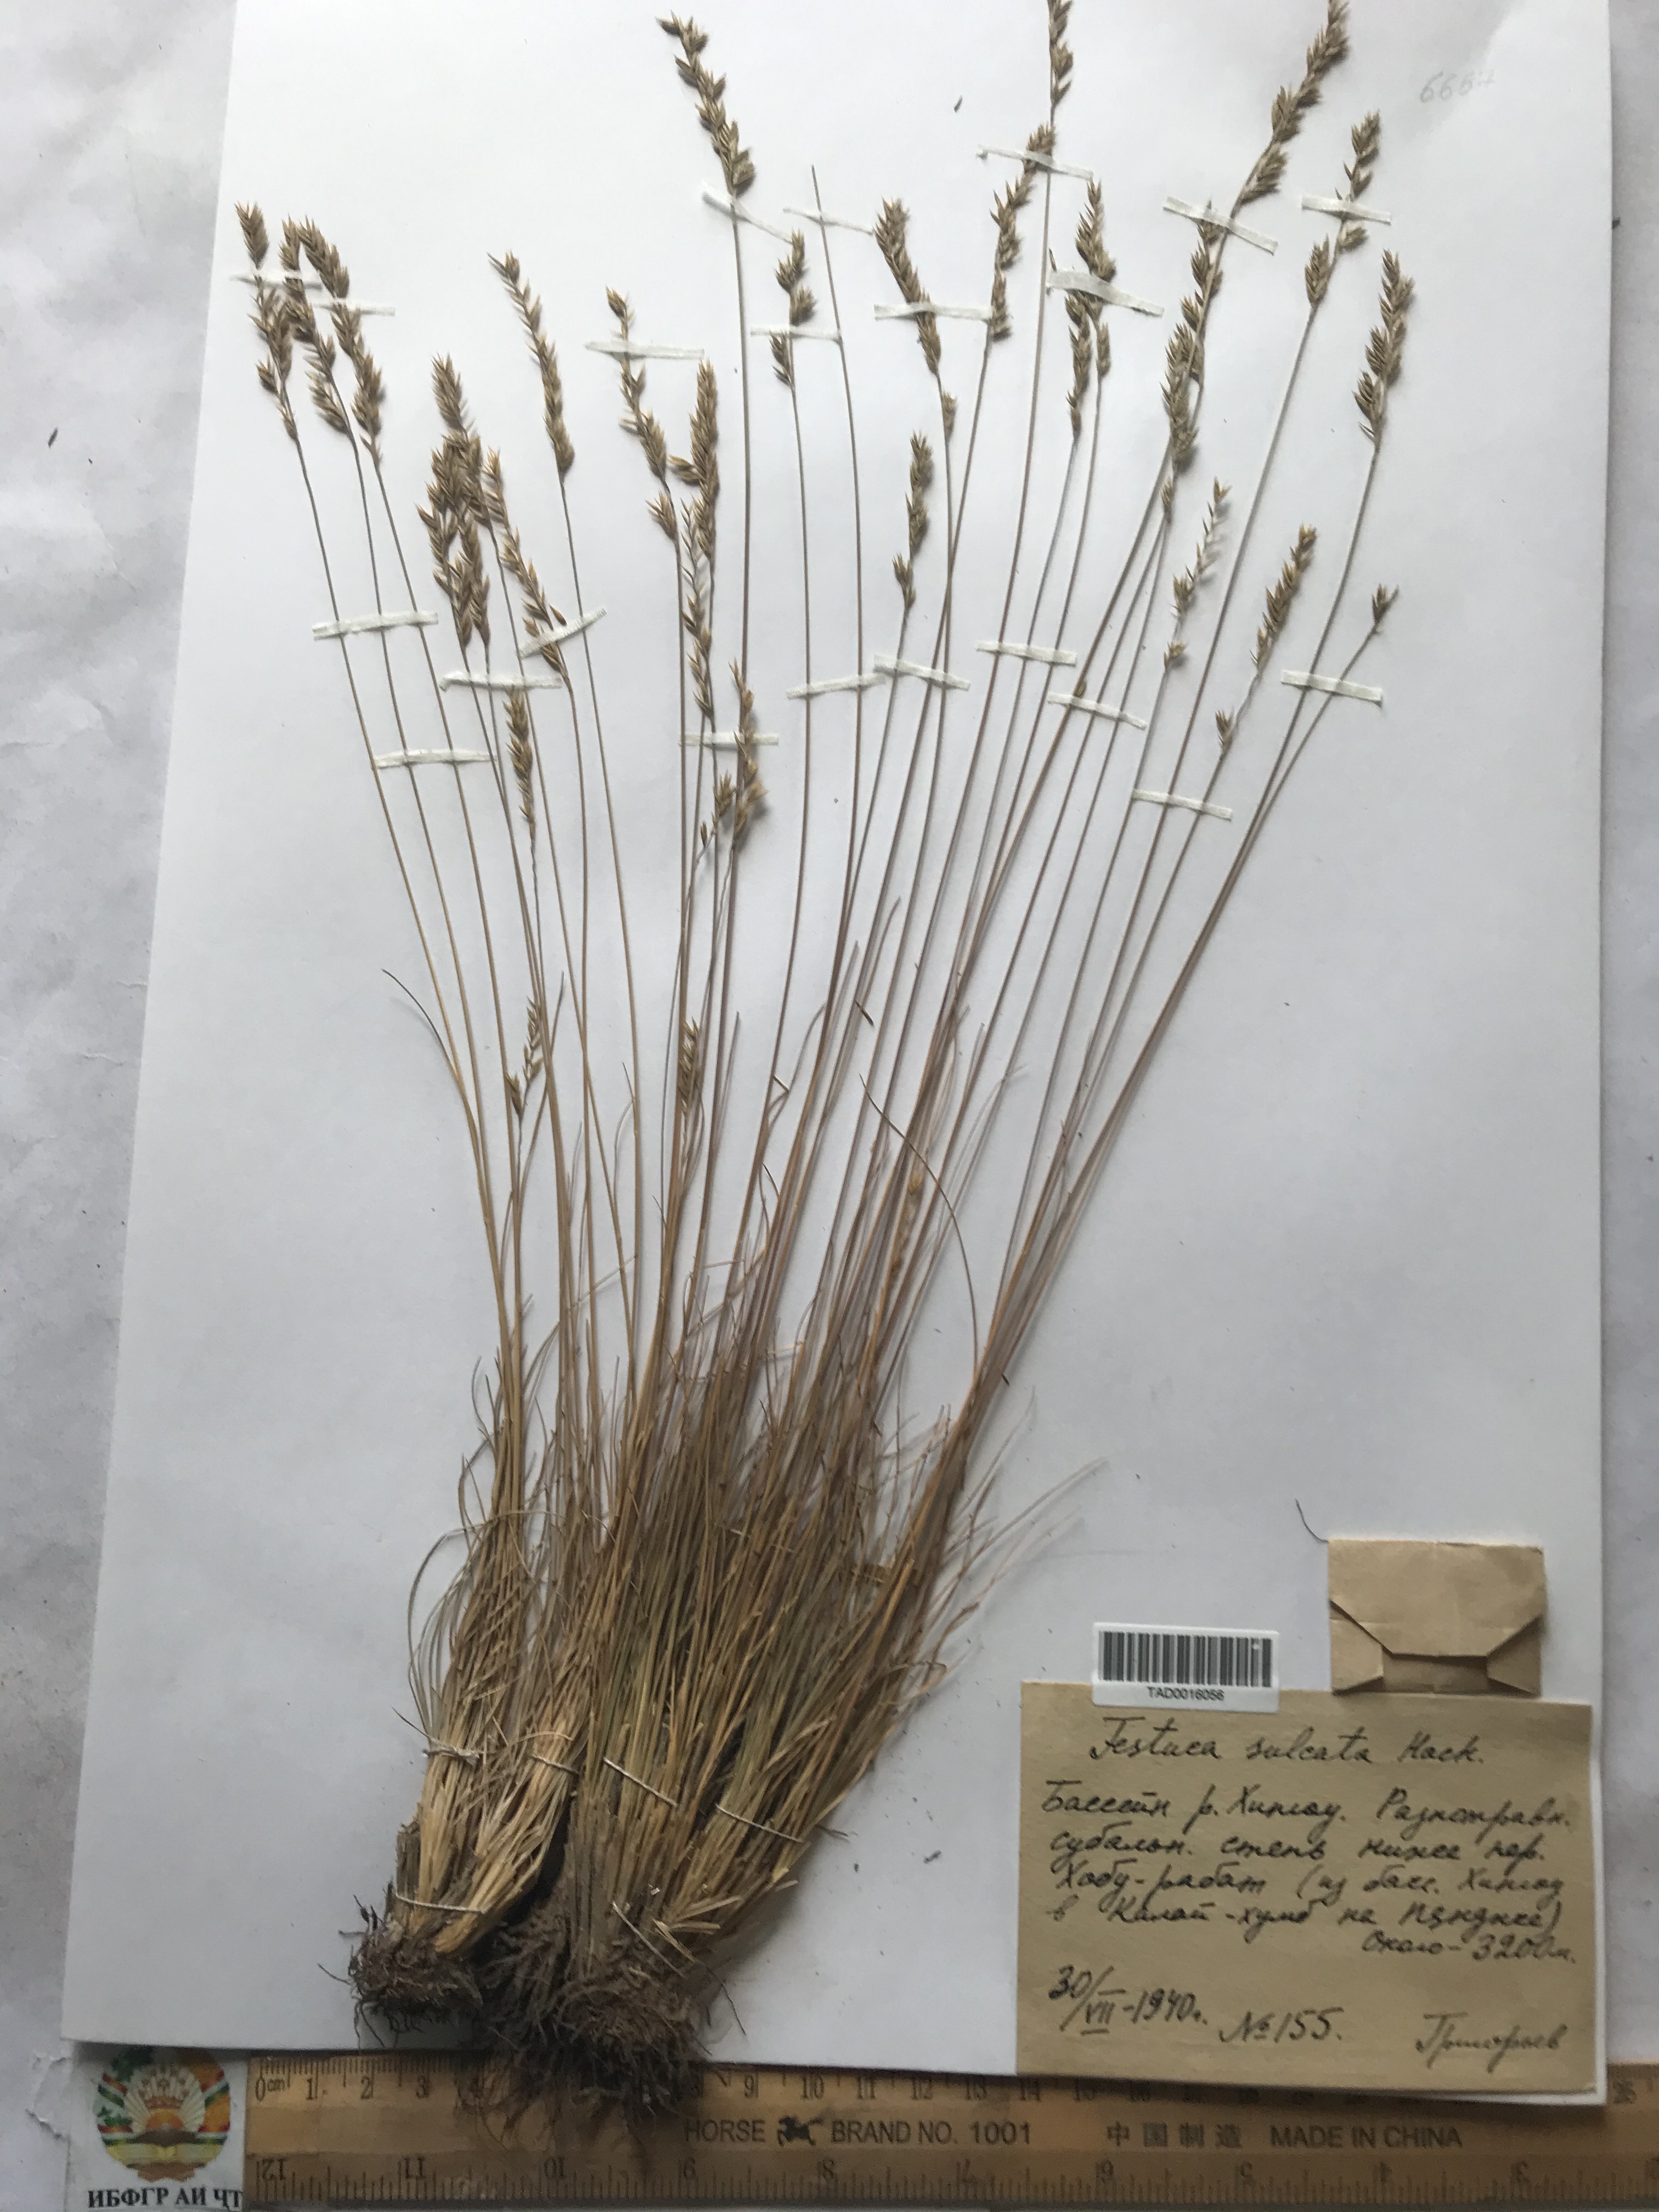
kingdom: Plantae
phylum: Tracheophyta
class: Liliopsida
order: Poales
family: Poaceae
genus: Festuca
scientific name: Festuca sulcata
